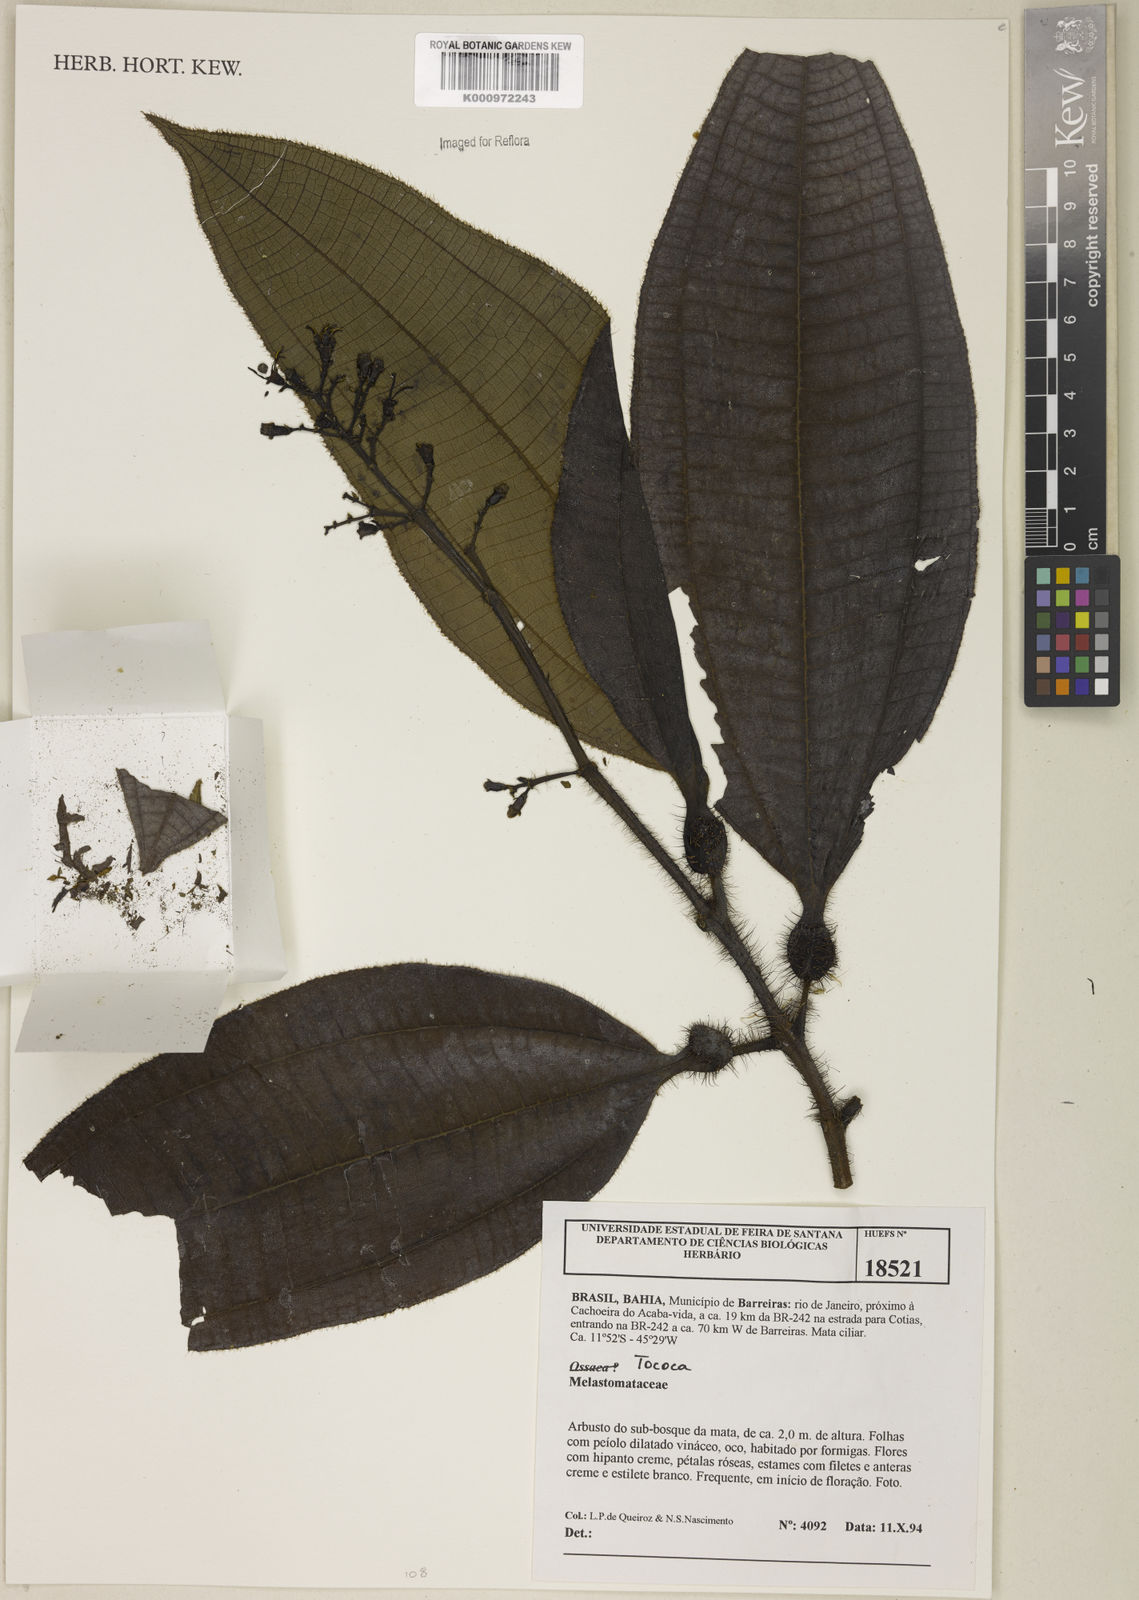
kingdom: Plantae
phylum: Tracheophyta
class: Magnoliopsida
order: Myrtales
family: Melastomataceae
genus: Miconia
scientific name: Miconia
